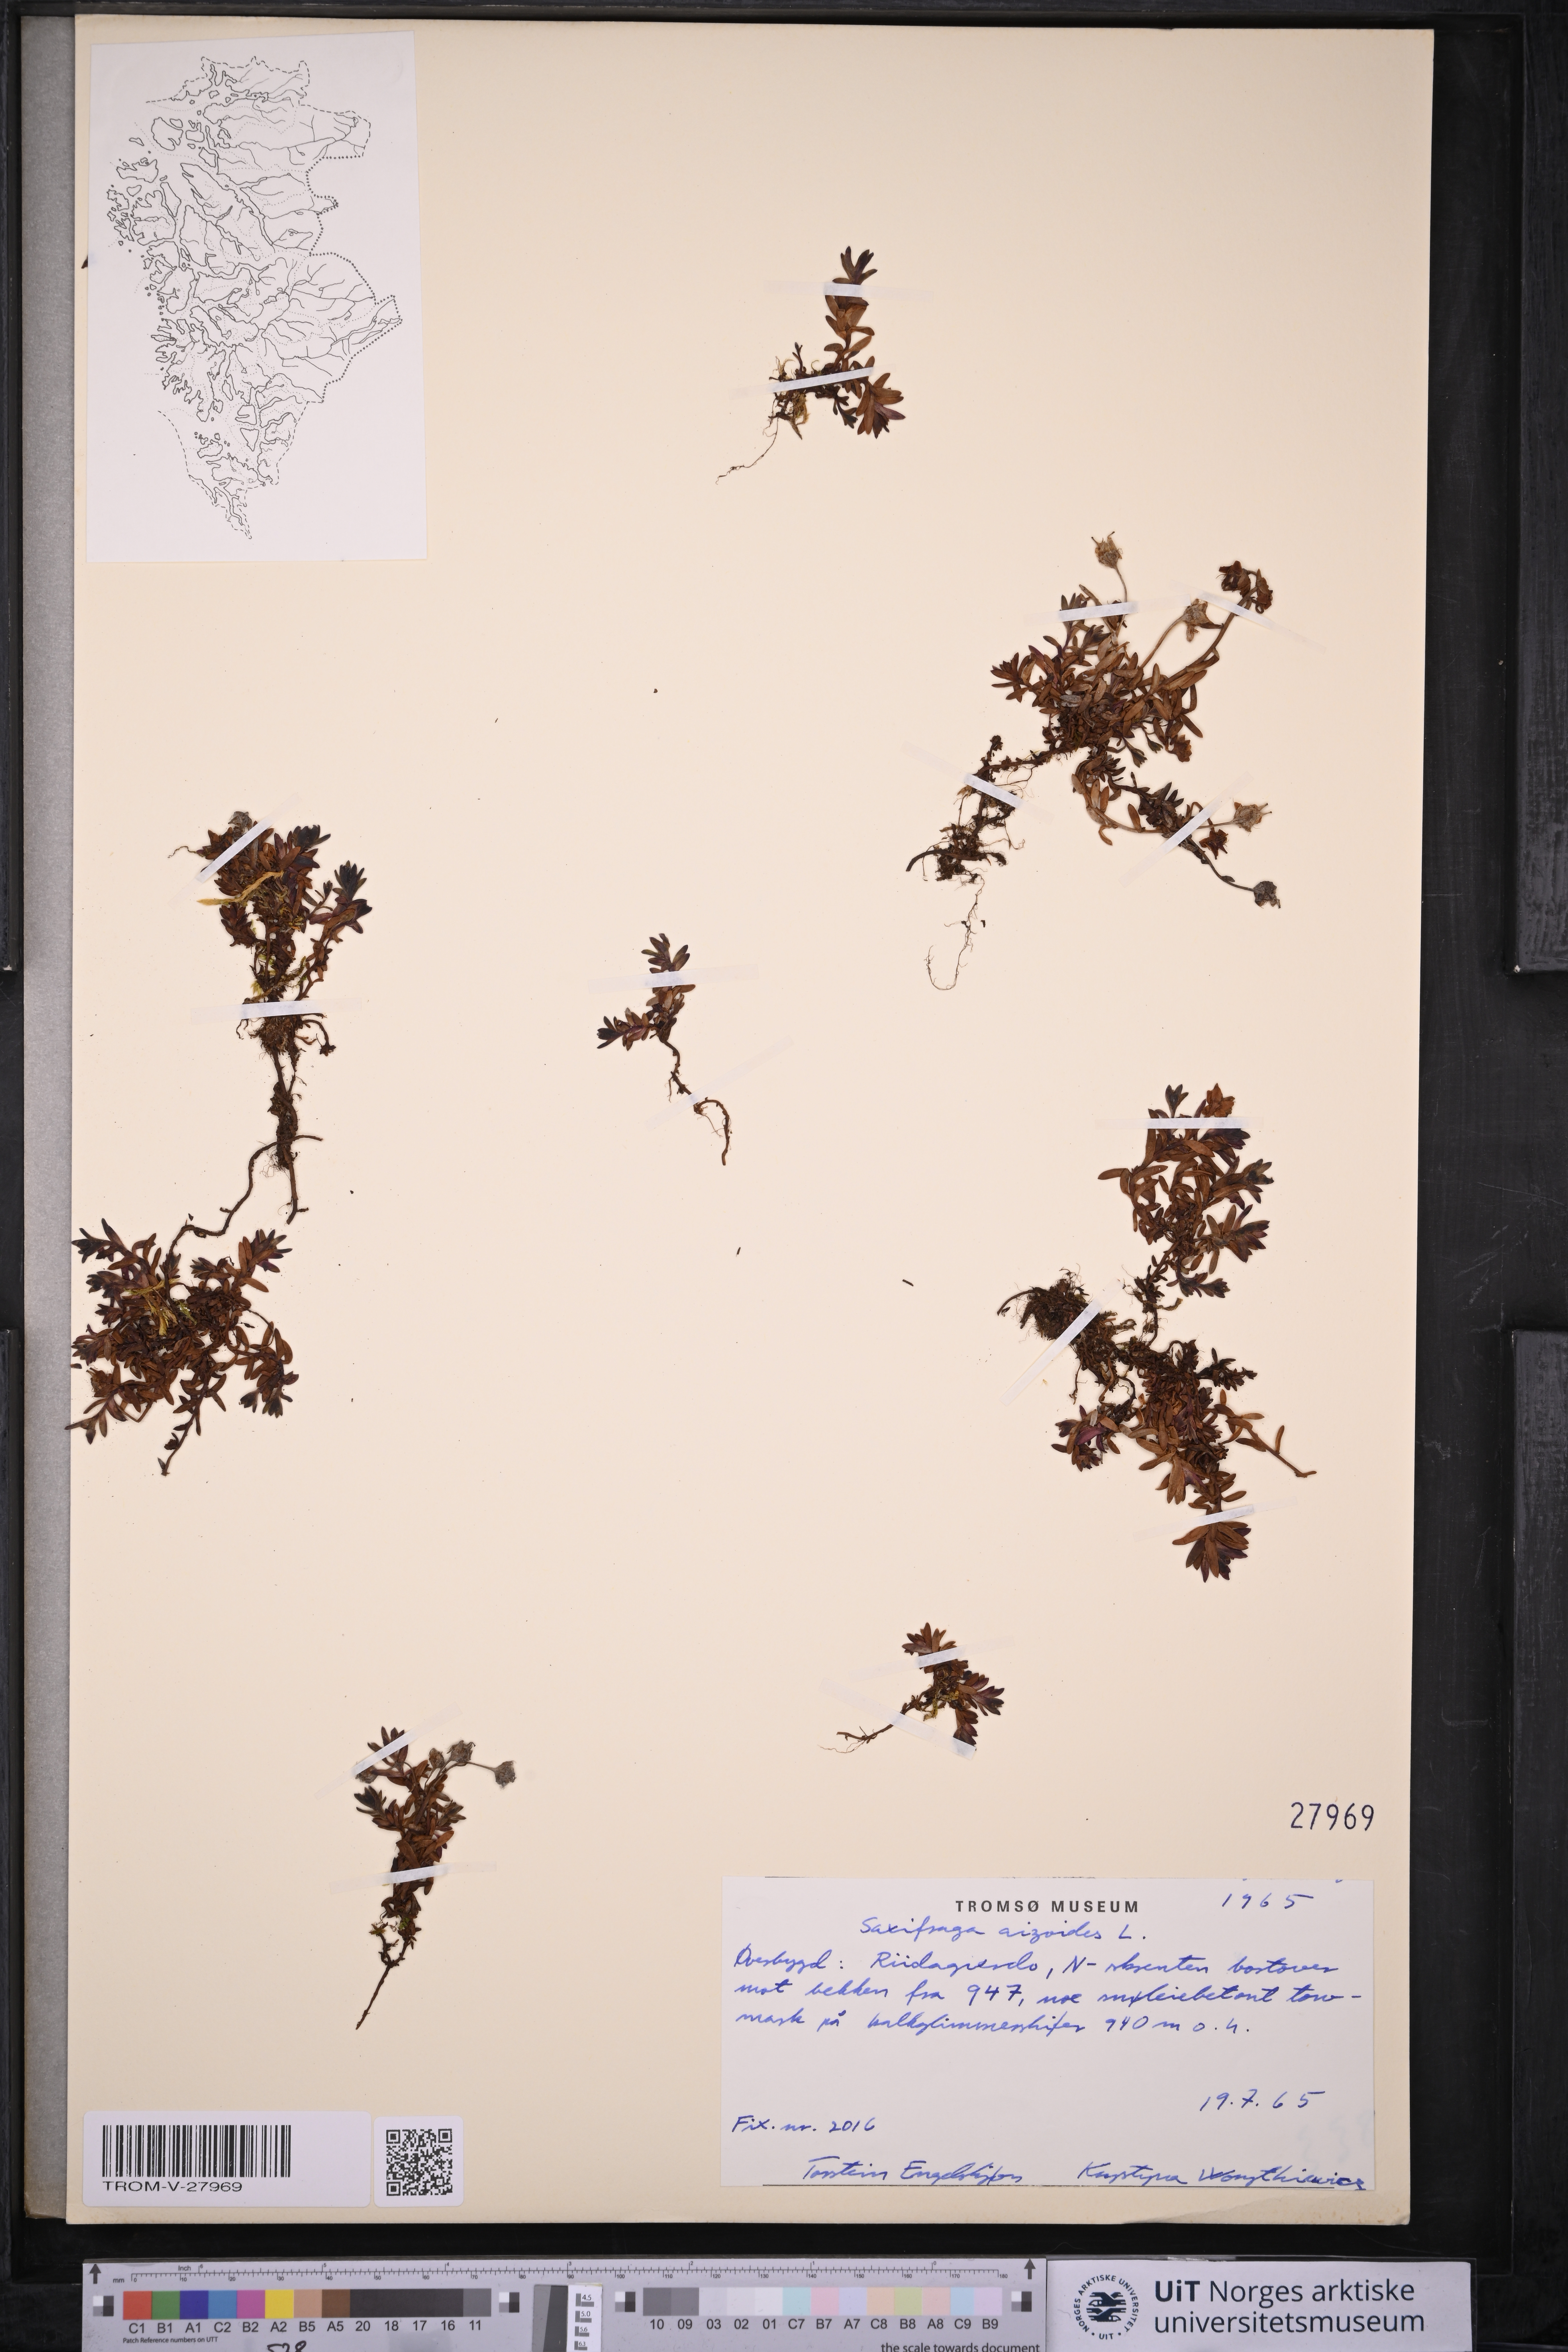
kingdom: Plantae
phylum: Tracheophyta
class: Magnoliopsida
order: Saxifragales
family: Saxifragaceae
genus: Saxifraga
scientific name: Saxifraga aizoides
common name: Yellow mountain saxifrage
